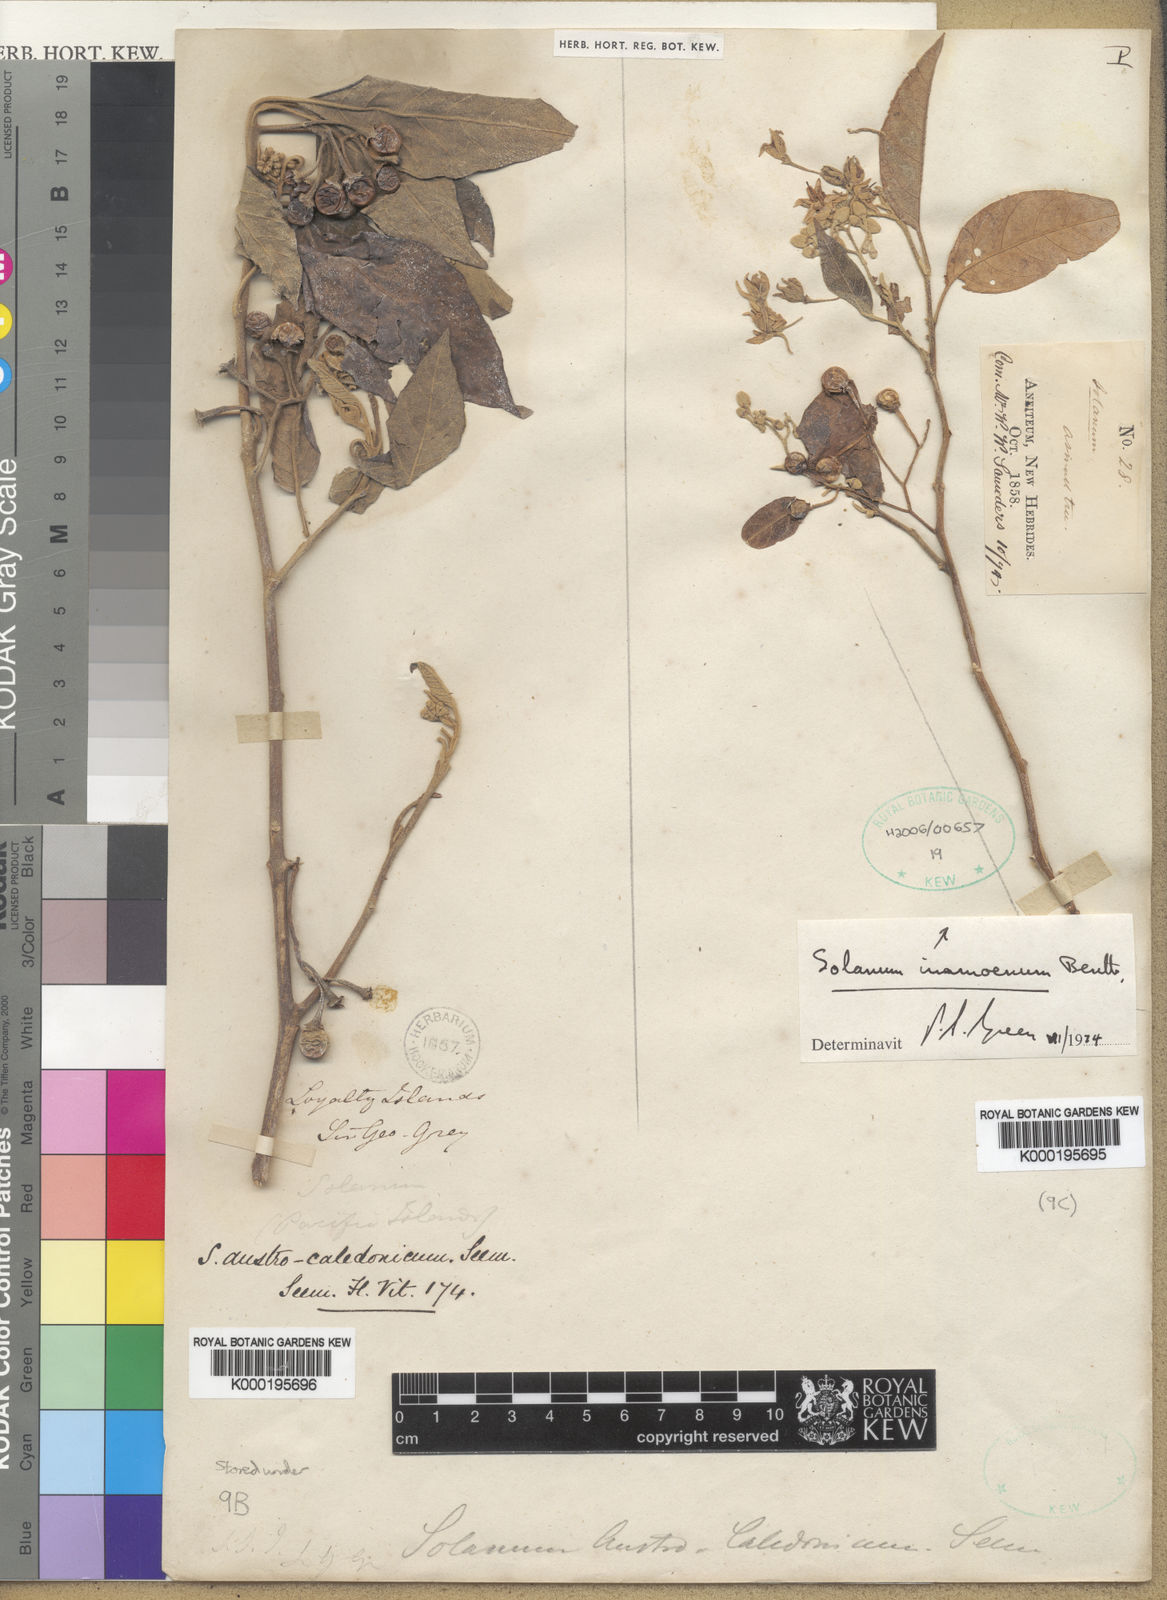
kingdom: Plantae
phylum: Tracheophyta
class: Magnoliopsida
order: Solanales
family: Solanaceae
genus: Solanum
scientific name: Solanum austrocaledonicum
